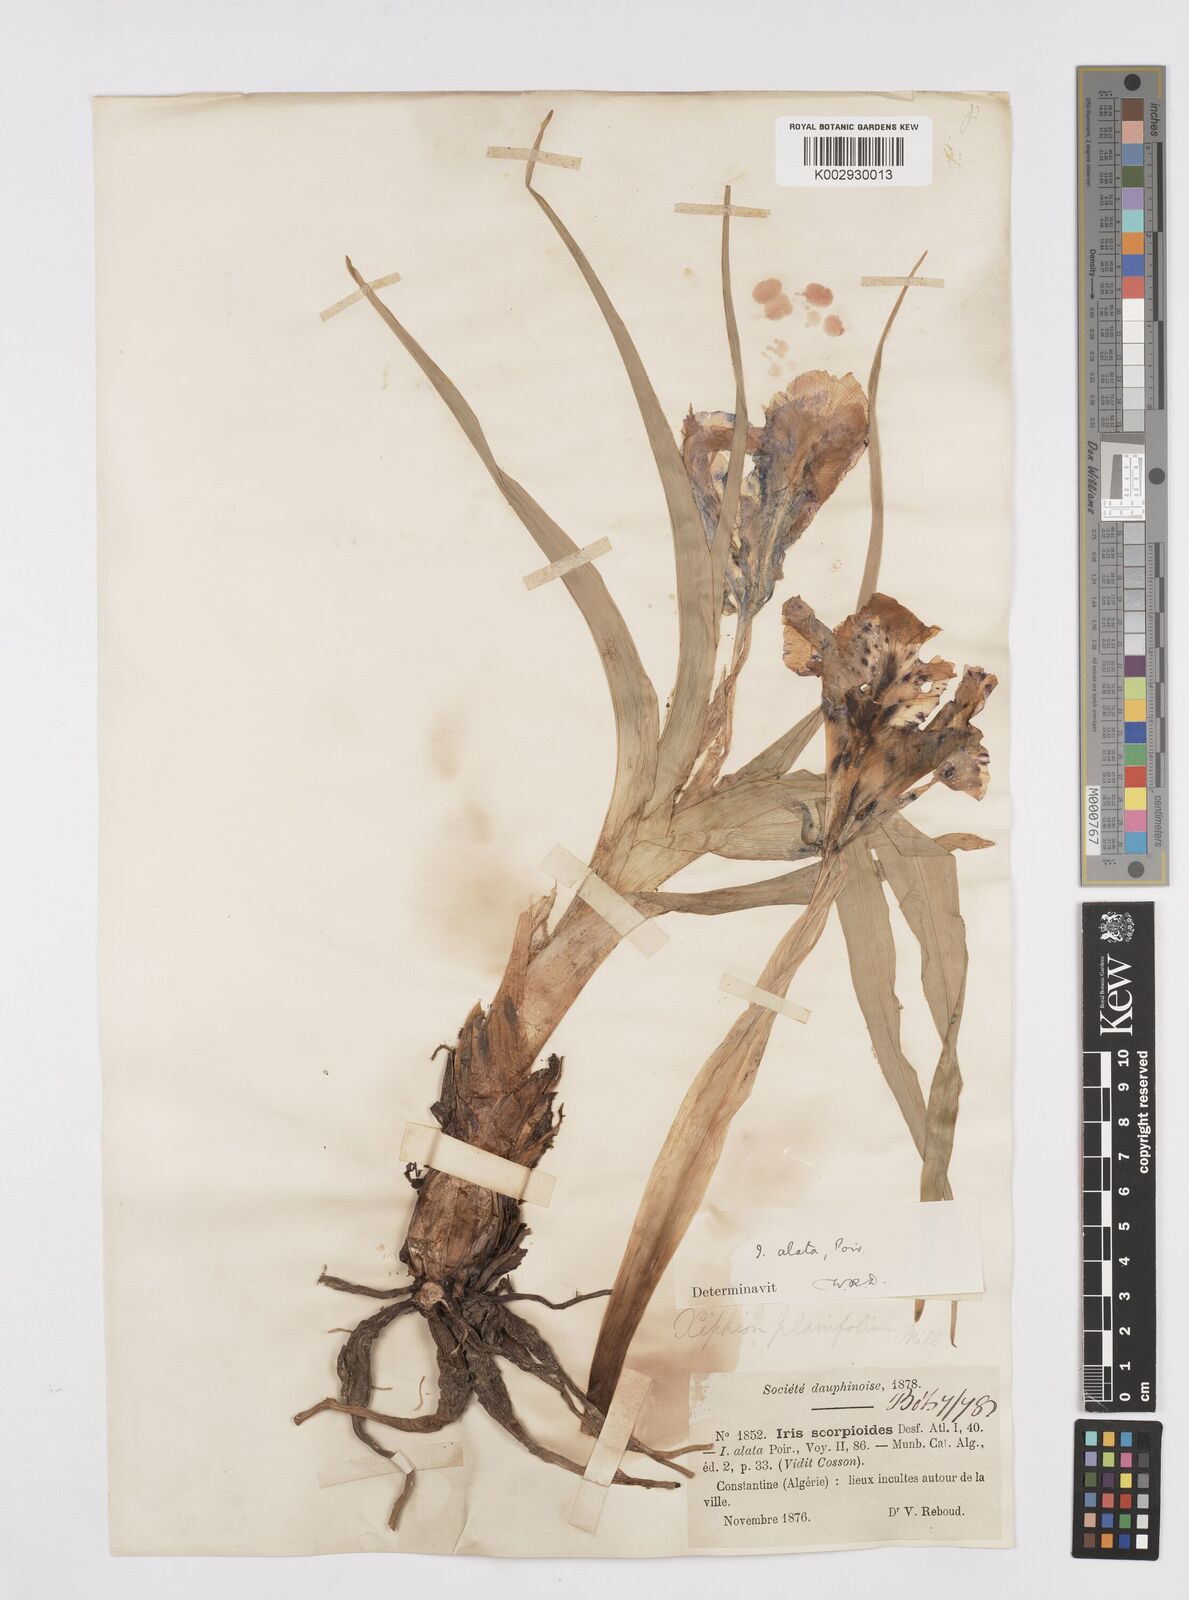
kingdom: Plantae
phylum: Tracheophyta
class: Liliopsida
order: Asparagales
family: Iridaceae
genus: Iris
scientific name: Iris planifolia
